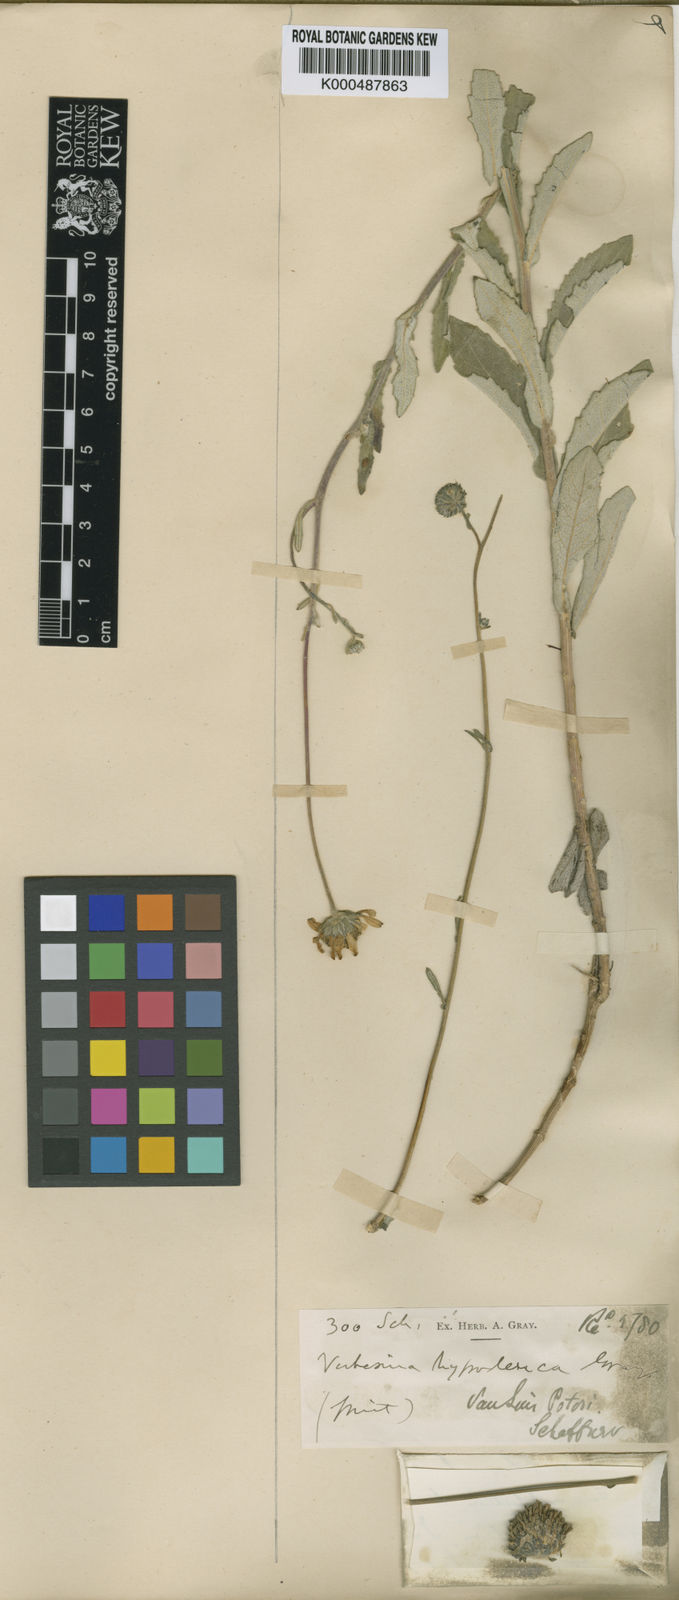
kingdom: Plantae
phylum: Tracheophyta
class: Magnoliopsida
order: Asterales
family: Asteraceae
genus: Verbesina
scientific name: Verbesina mollis
